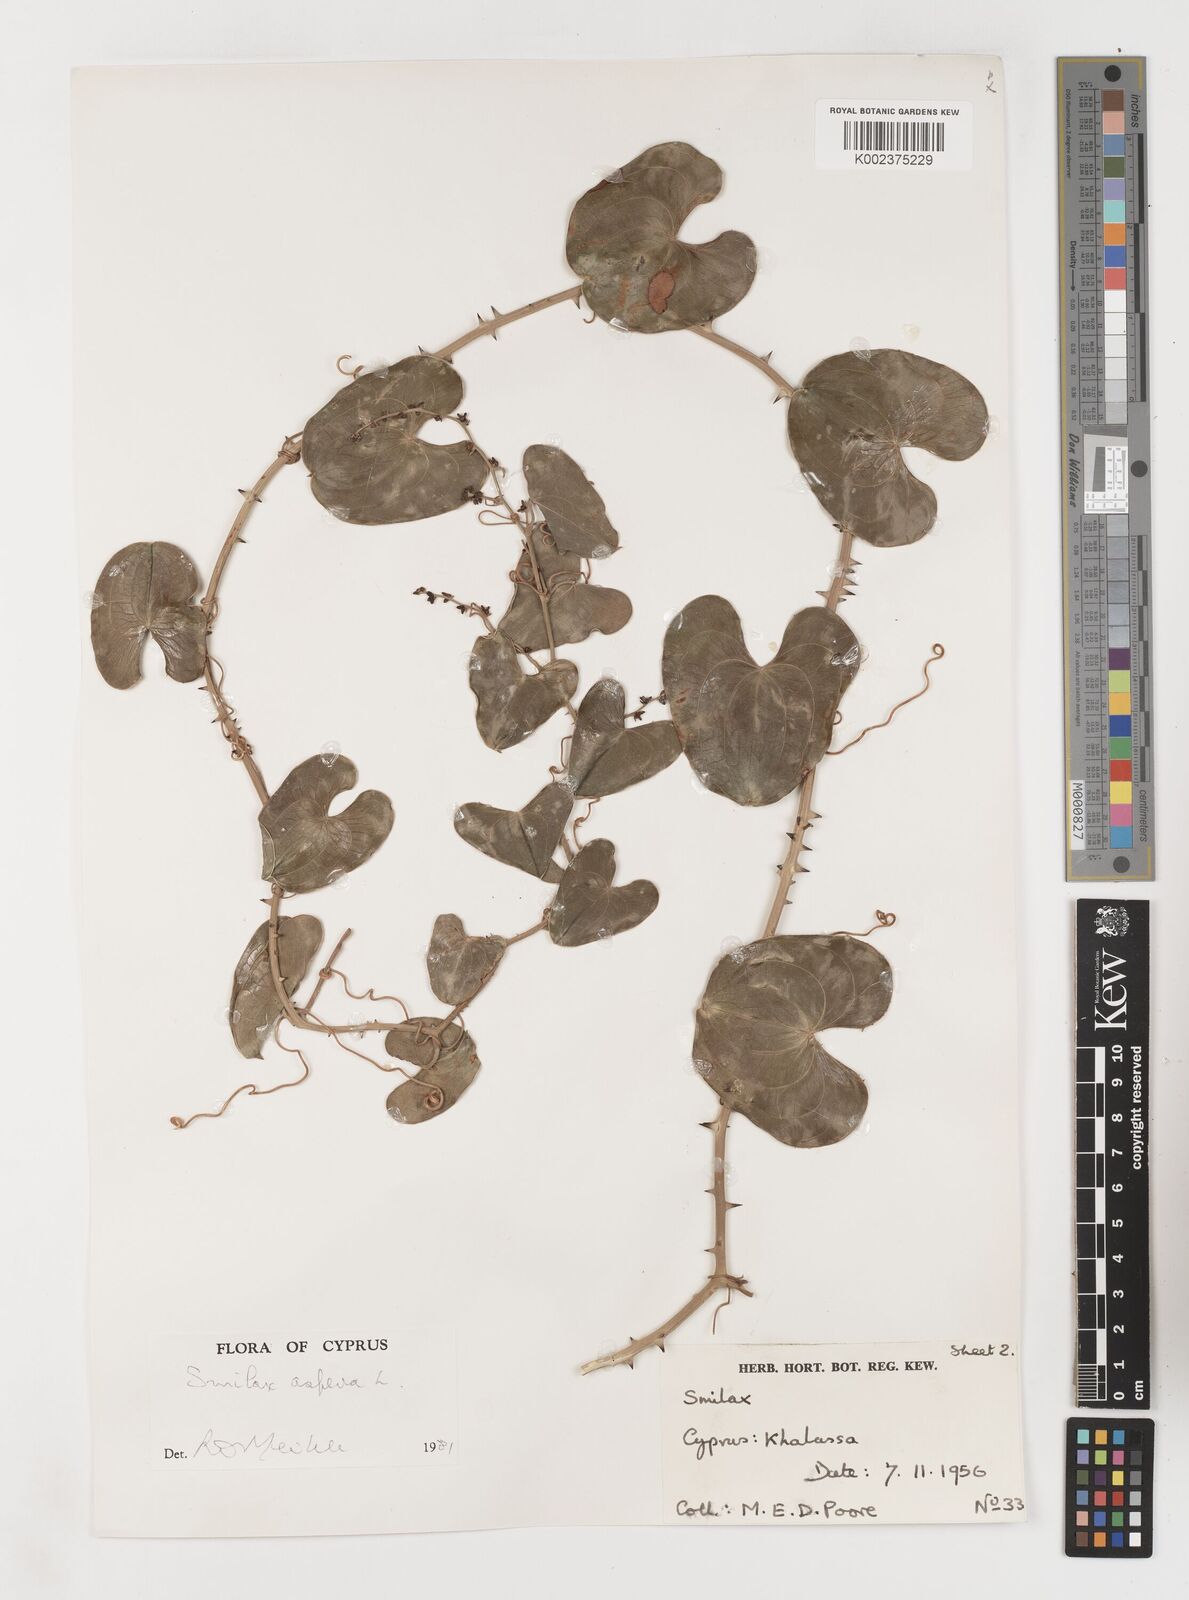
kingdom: Plantae
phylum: Tracheophyta
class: Liliopsida
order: Liliales
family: Smilacaceae
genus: Smilax
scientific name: Smilax aspera
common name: Common smilax
